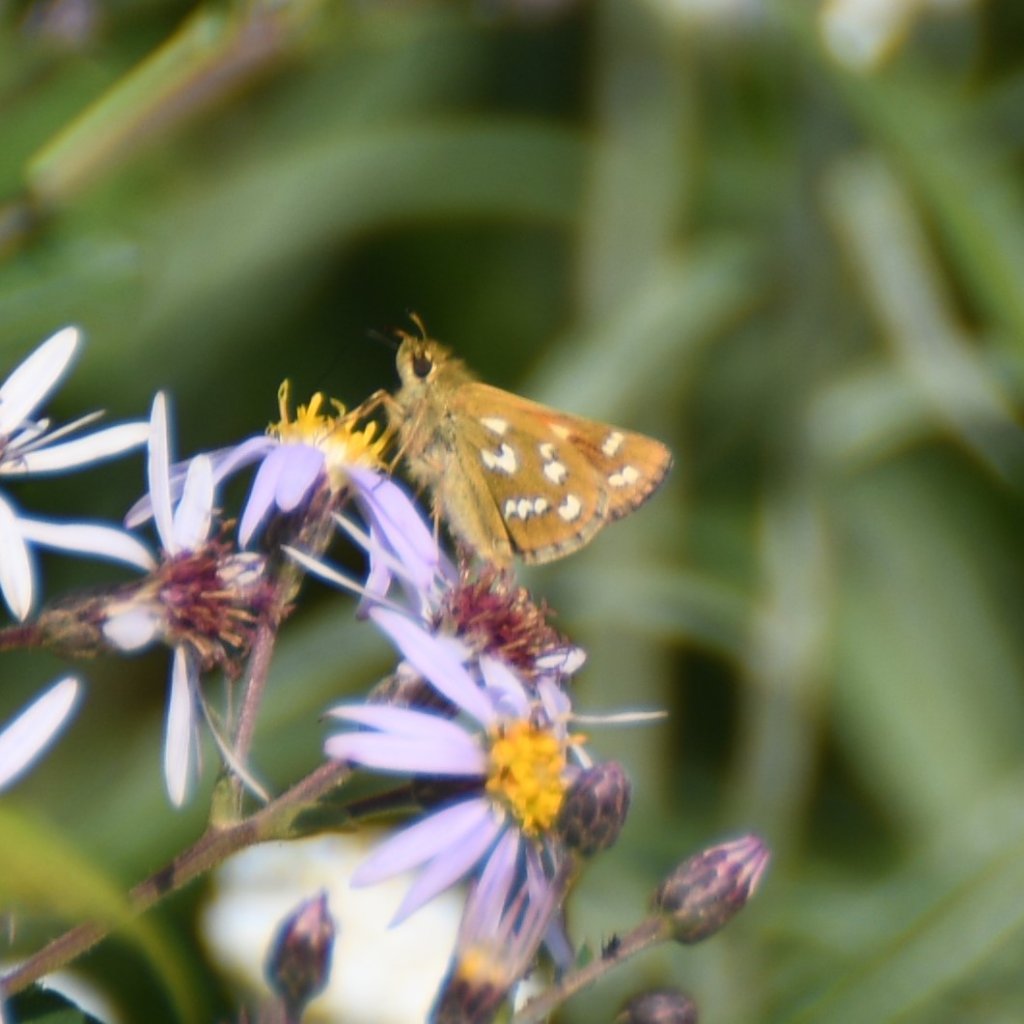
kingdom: Animalia
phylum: Arthropoda
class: Insecta
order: Lepidoptera
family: Hesperiidae
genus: Hesperia
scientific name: Hesperia comma
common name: Common Branded Skipper
